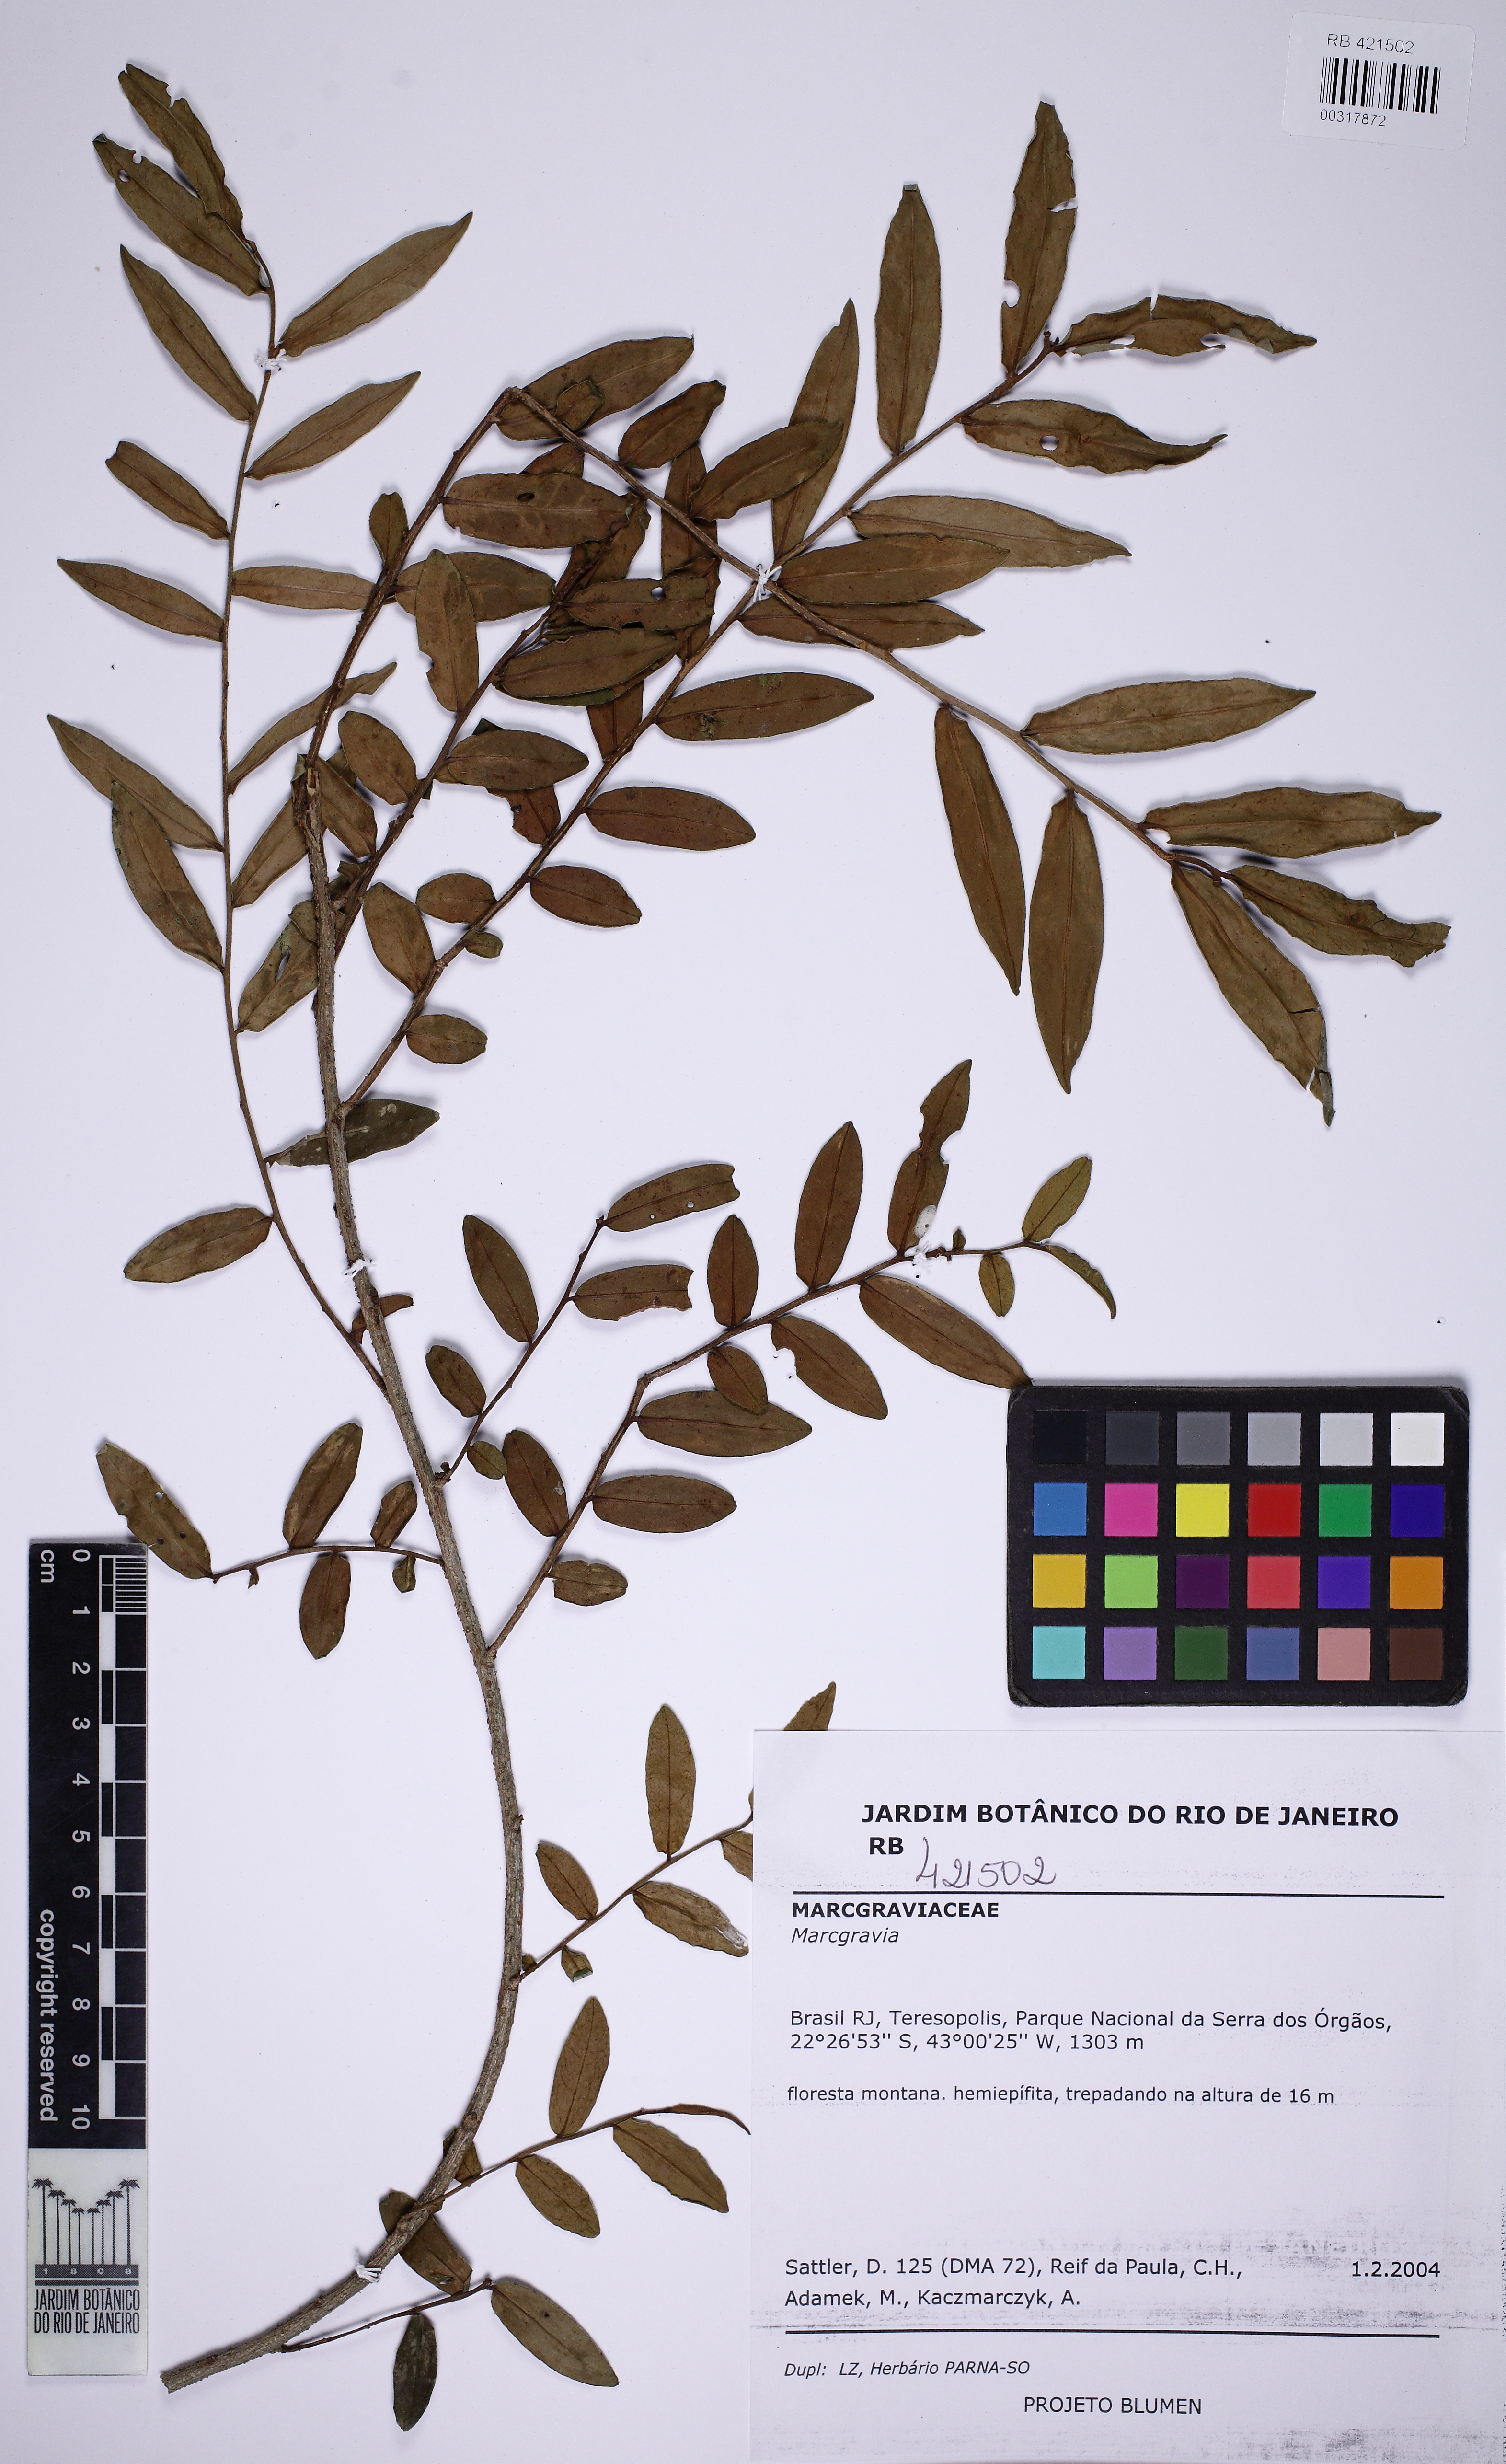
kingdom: Plantae
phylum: Tracheophyta
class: Magnoliopsida
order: Ericales
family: Marcgraviaceae
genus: Marcgravia
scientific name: Marcgravia
